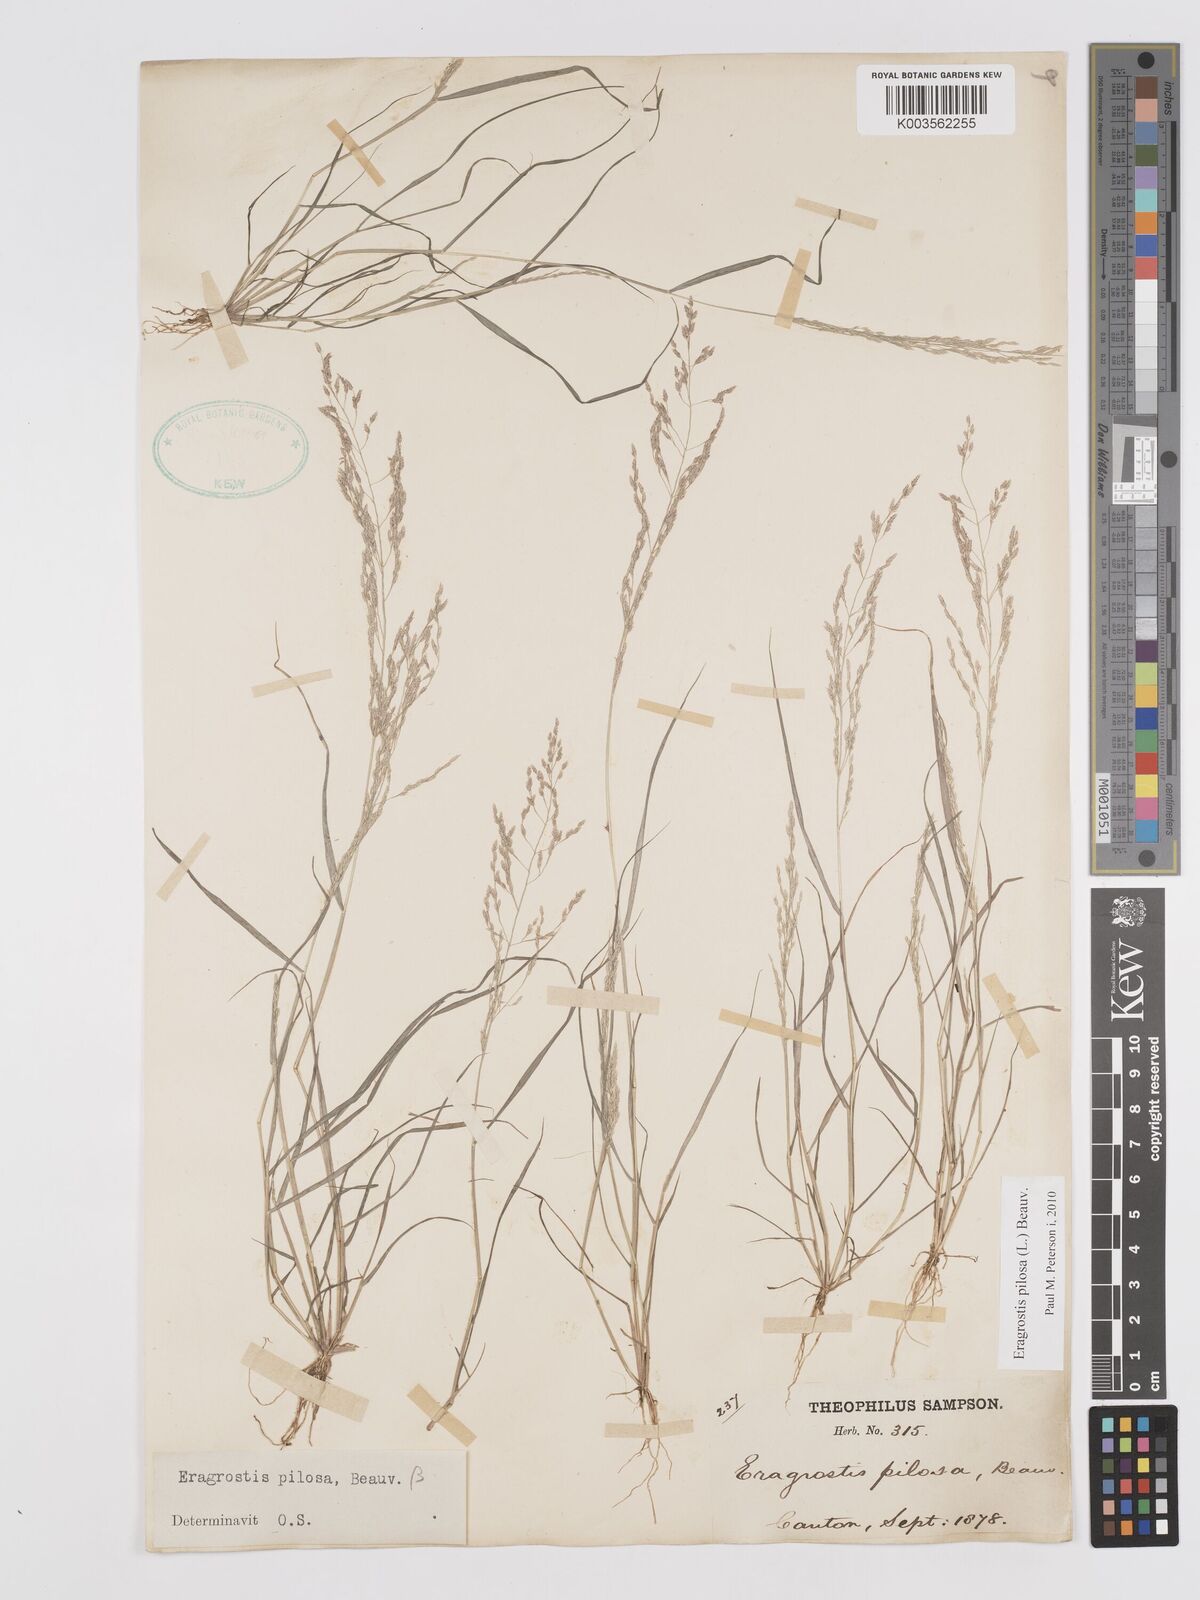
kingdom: Plantae
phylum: Tracheophyta
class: Liliopsida
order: Poales
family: Poaceae
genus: Eragrostis
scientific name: Eragrostis pilosa
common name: Indian lovegrass
